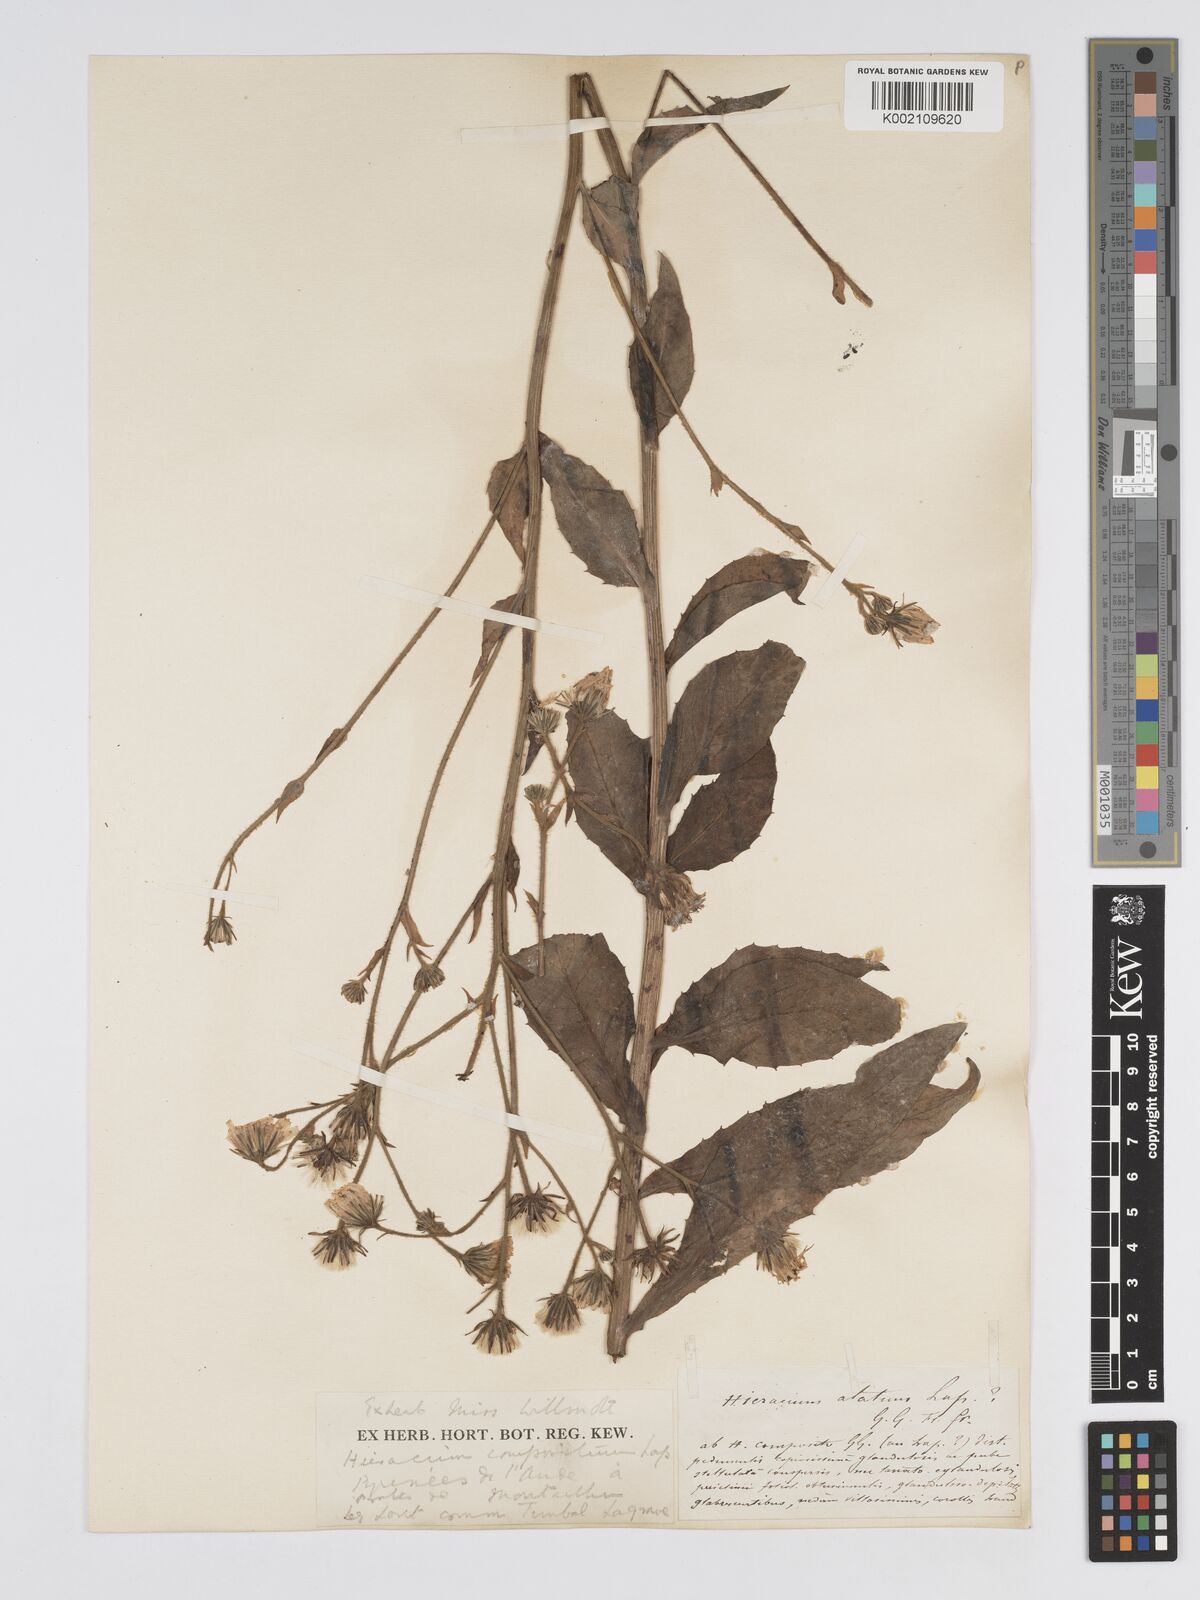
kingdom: Plantae
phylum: Tracheophyta
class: Magnoliopsida
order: Asterales
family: Asteraceae
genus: Hieracium
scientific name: Hieracium compositum
